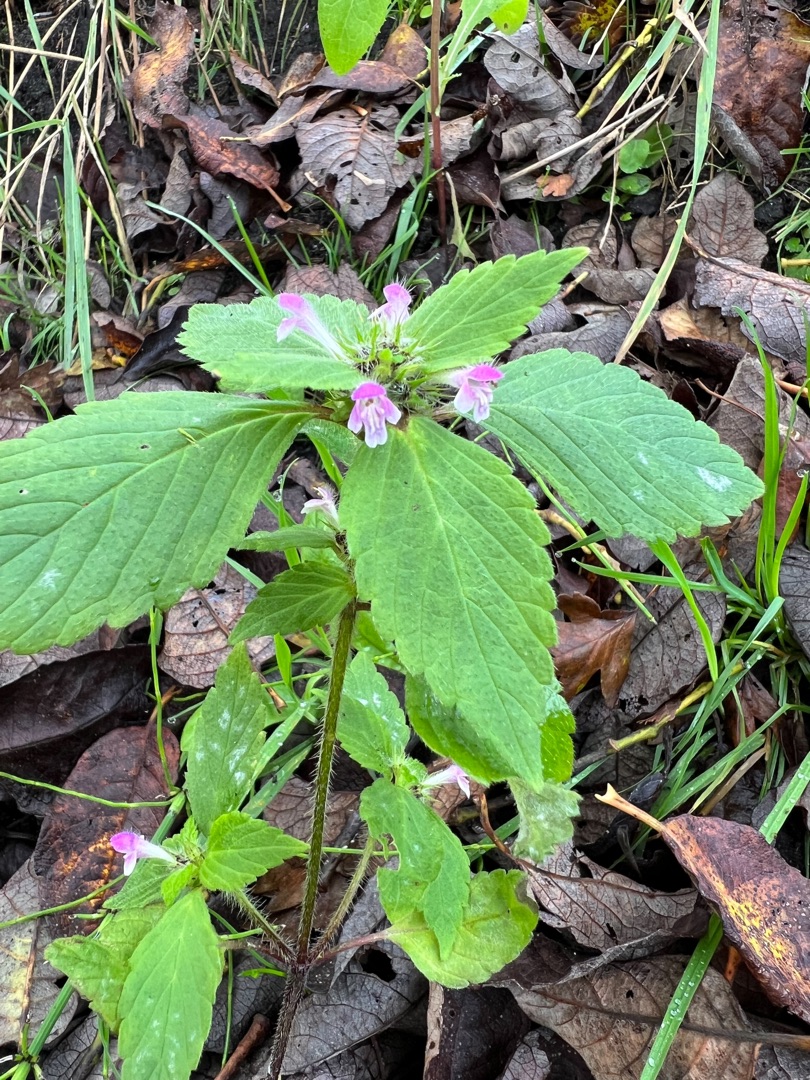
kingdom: Plantae
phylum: Tracheophyta
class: Magnoliopsida
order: Lamiales
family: Lamiaceae
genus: Galeopsis
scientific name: Galeopsis bifida
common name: Skov-hanekro
